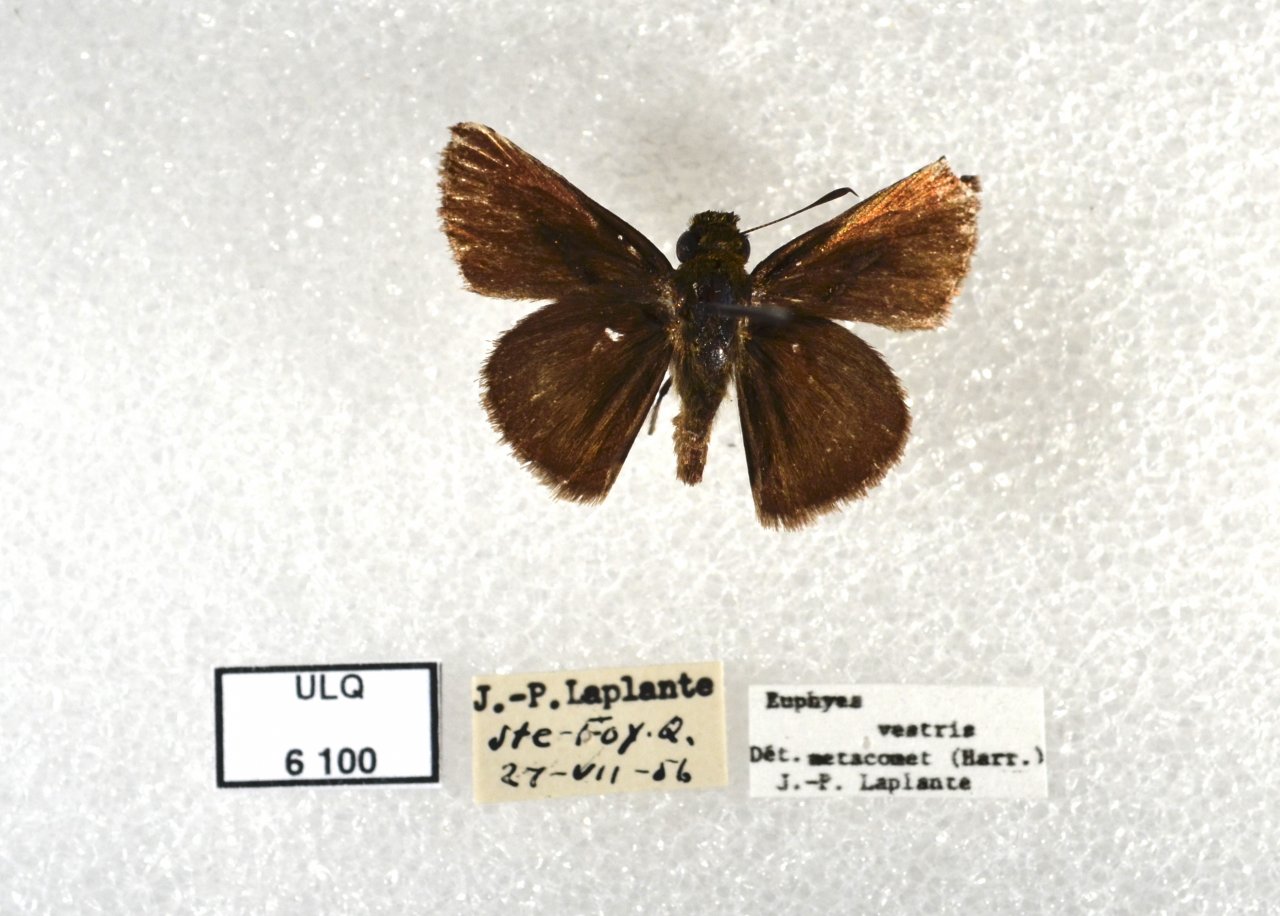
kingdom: Animalia
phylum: Arthropoda
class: Insecta
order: Lepidoptera
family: Hesperiidae
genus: Euphyes
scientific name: Euphyes vestris
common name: Dun Skipper
